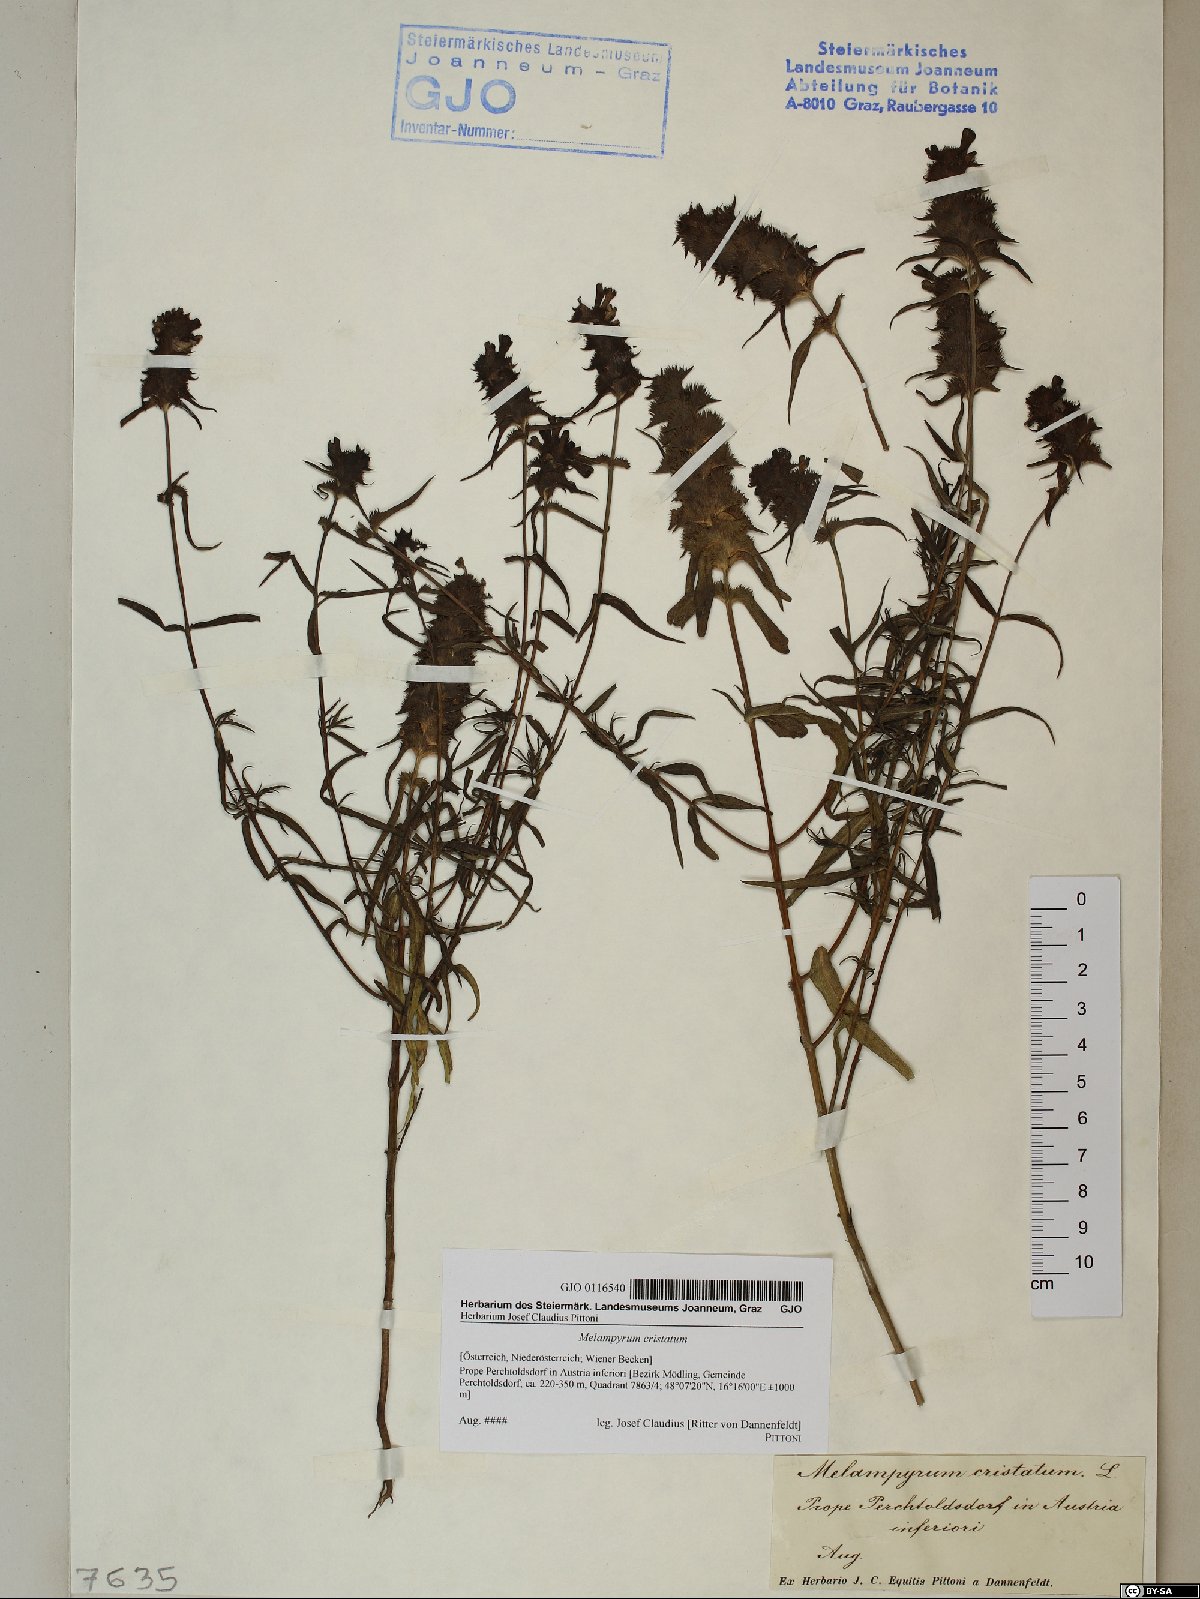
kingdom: Plantae
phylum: Tracheophyta
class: Magnoliopsida
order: Lamiales
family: Orobanchaceae
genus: Melampyrum
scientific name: Melampyrum cristatum
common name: Crested cow-wheat
